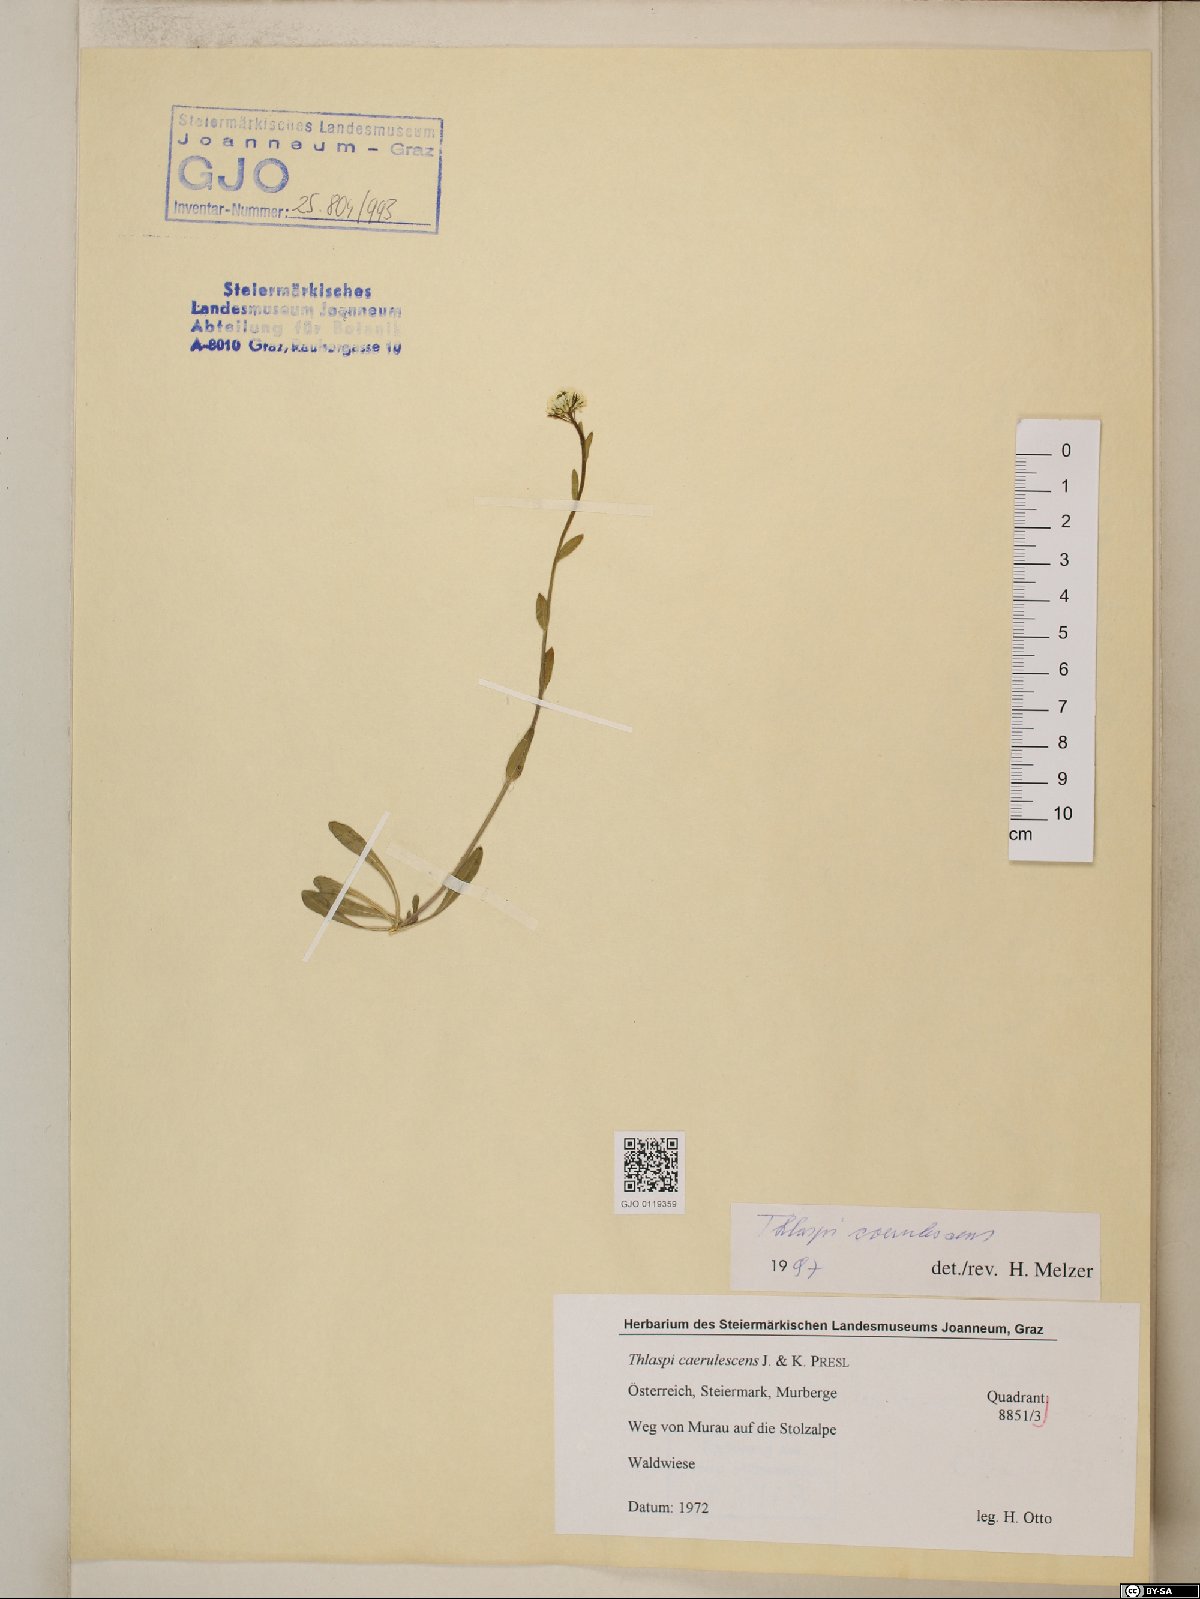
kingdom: Plantae
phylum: Tracheophyta
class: Magnoliopsida
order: Brassicales
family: Brassicaceae
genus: Noccaea
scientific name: Noccaea caerulescens
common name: Alpine pennycress
